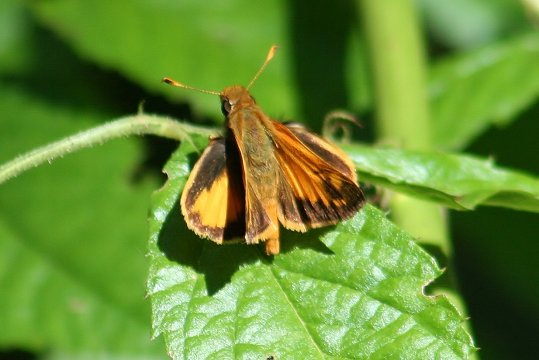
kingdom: Animalia
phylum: Arthropoda
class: Insecta
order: Lepidoptera
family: Hesperiidae
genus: Lon
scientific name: Lon zabulon
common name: Zabulon Skipper
